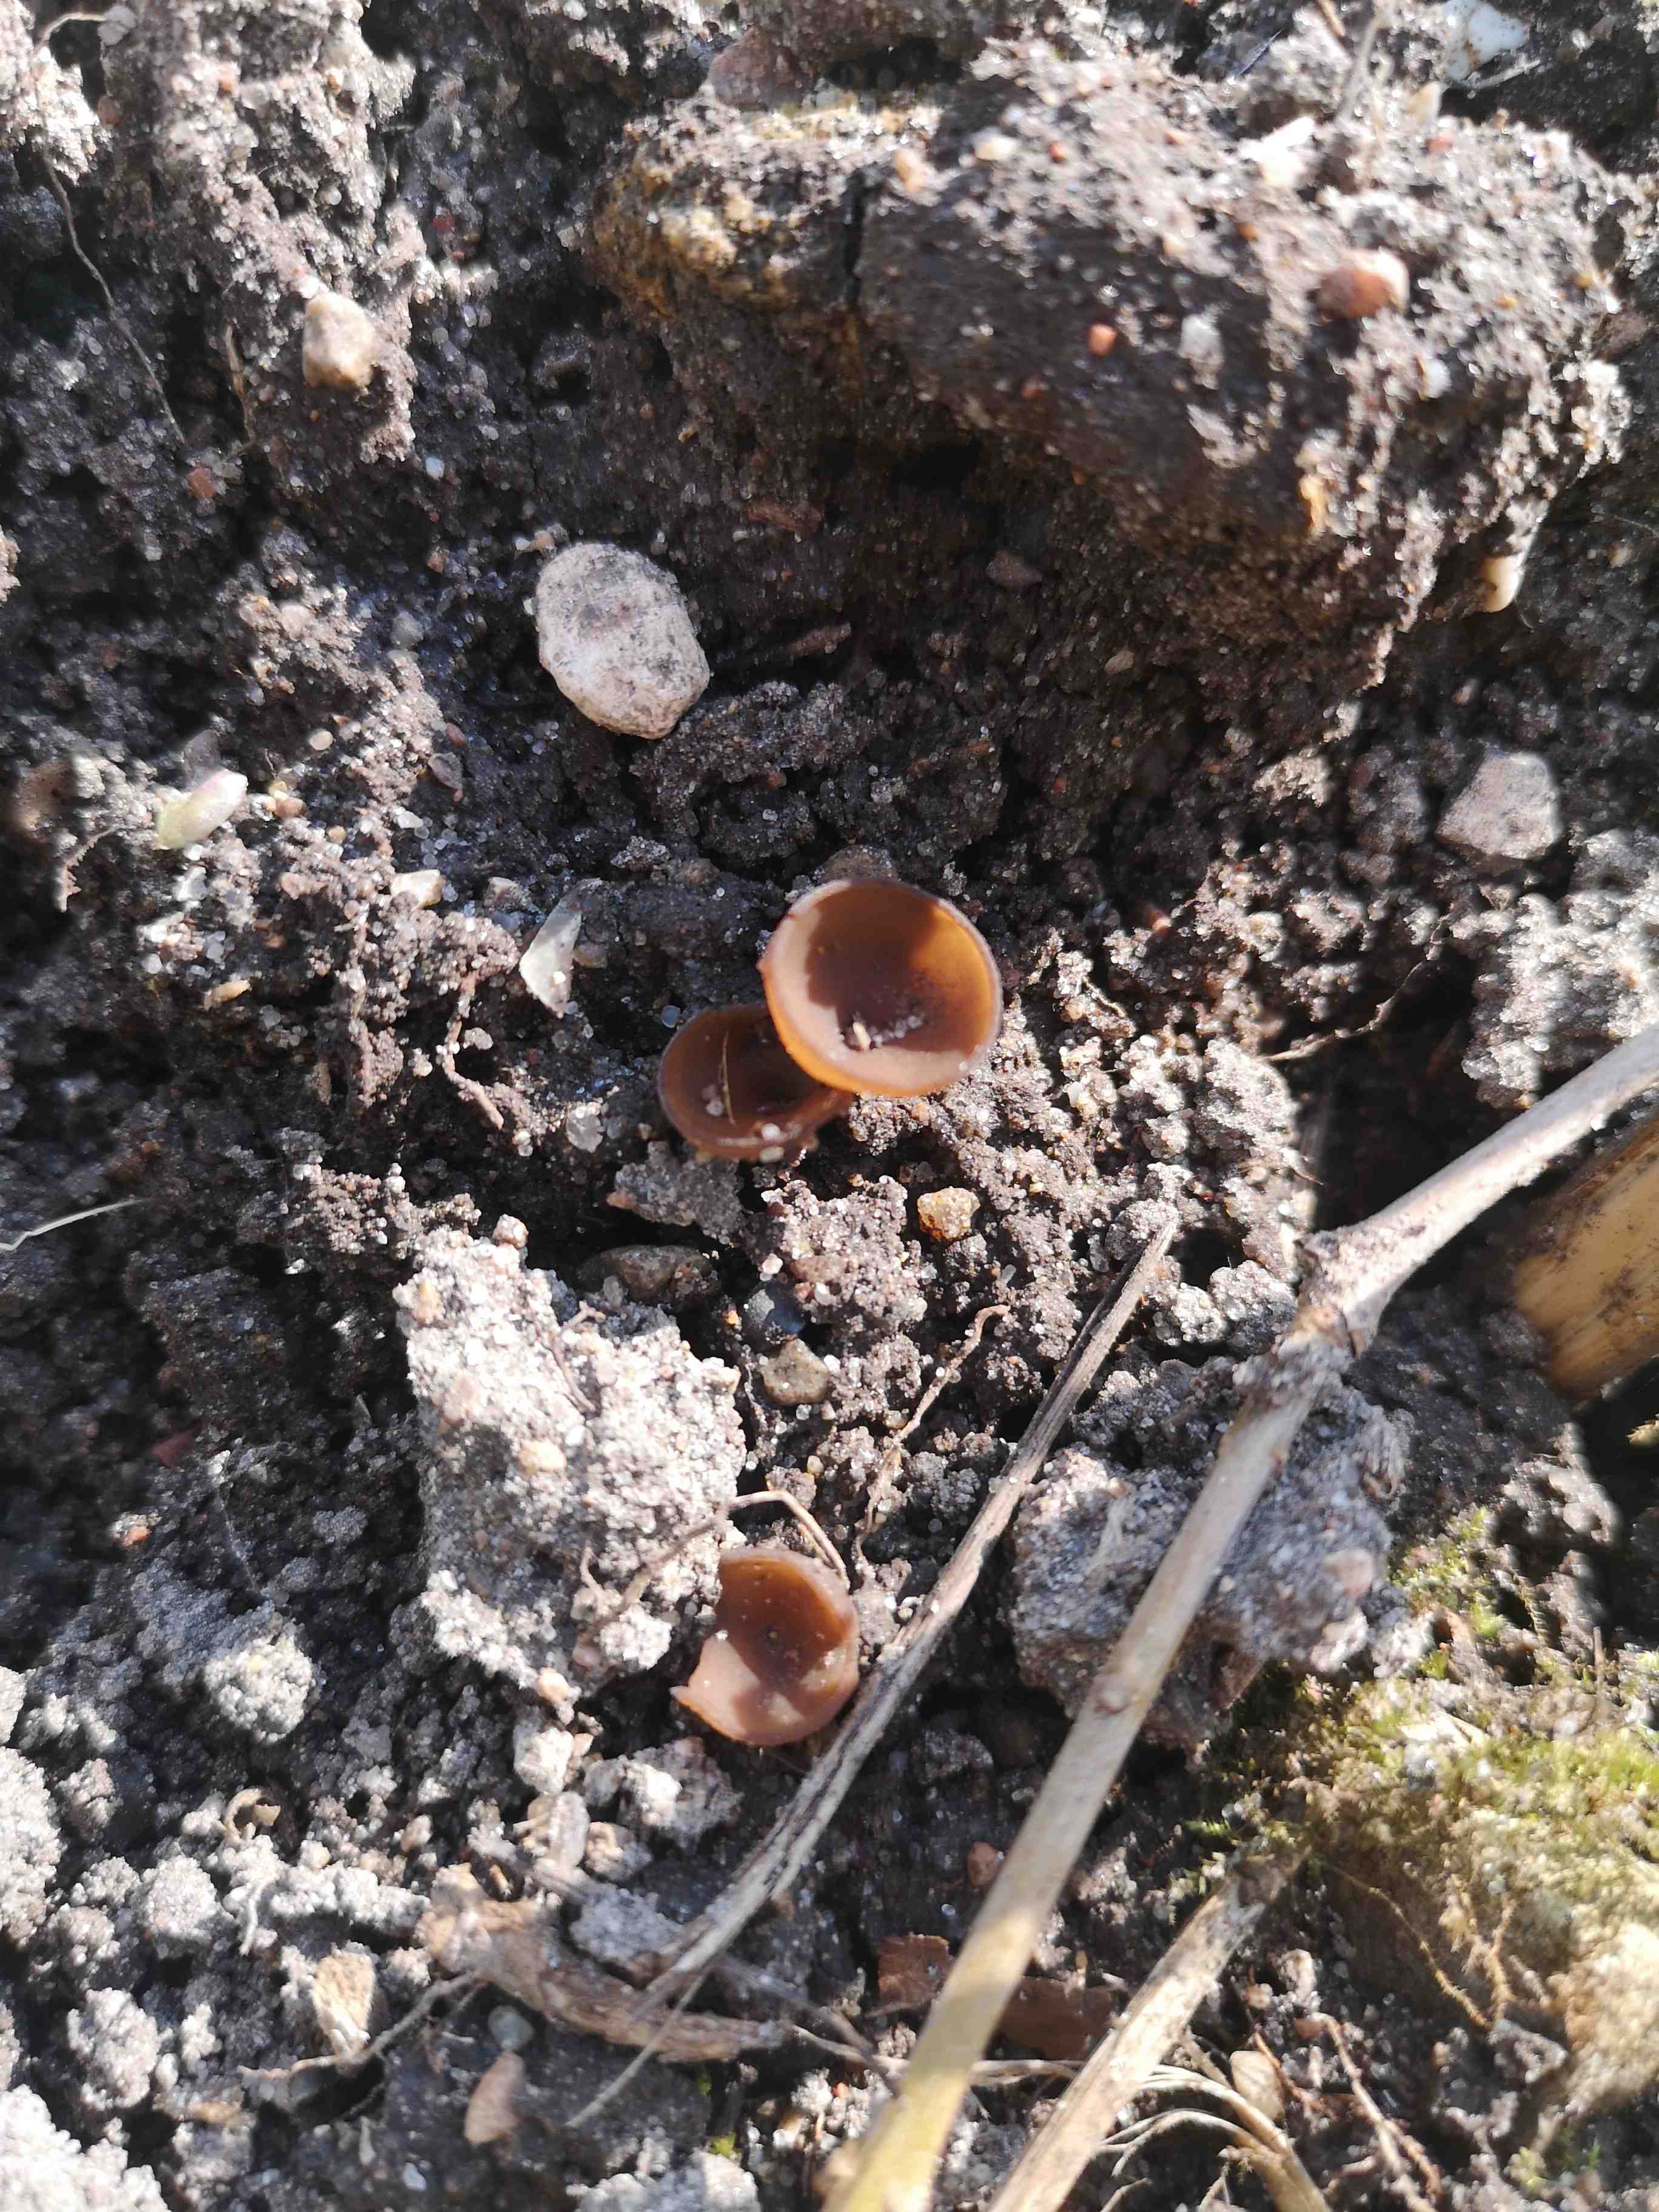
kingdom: Fungi
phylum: Ascomycota
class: Leotiomycetes
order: Helotiales
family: Sclerotiniaceae
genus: Dumontinia
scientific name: Dumontinia tuberosa
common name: anemone-knoldskive
